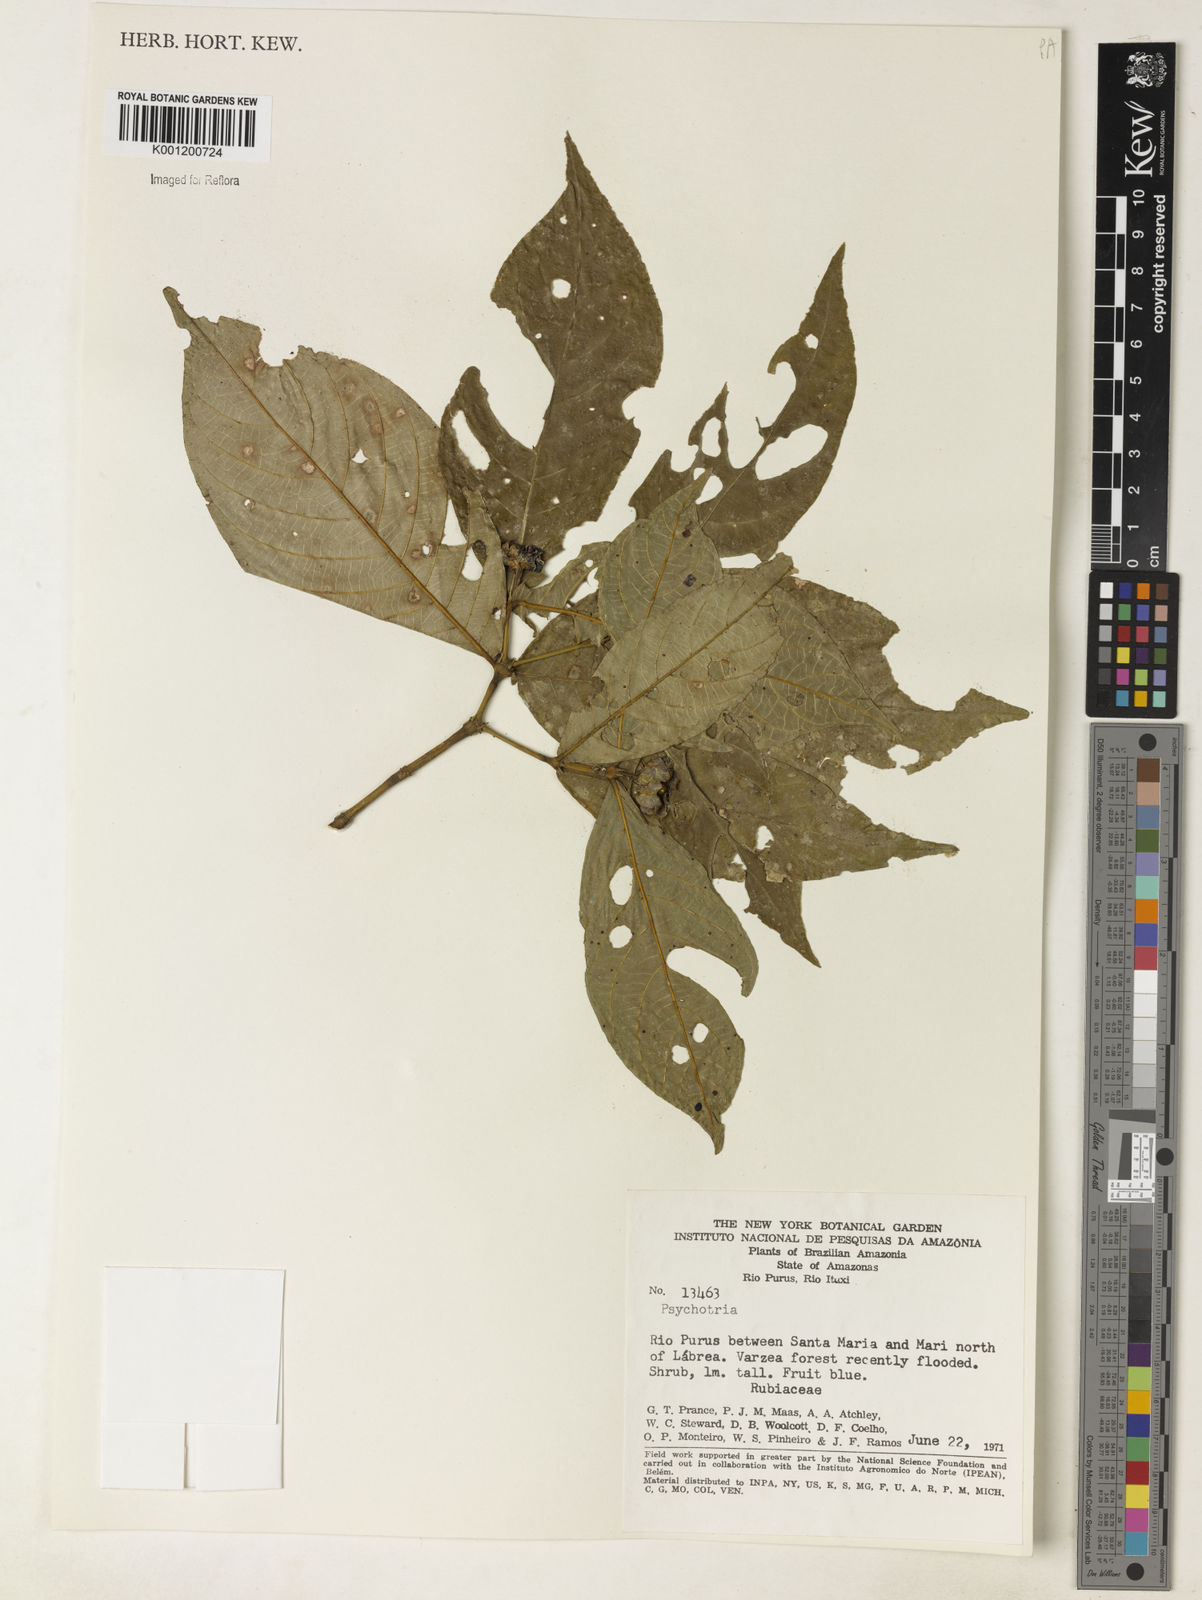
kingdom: Plantae
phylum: Tracheophyta
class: Magnoliopsida
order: Gentianales
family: Rubiaceae
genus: Psychotria
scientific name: Psychotria
